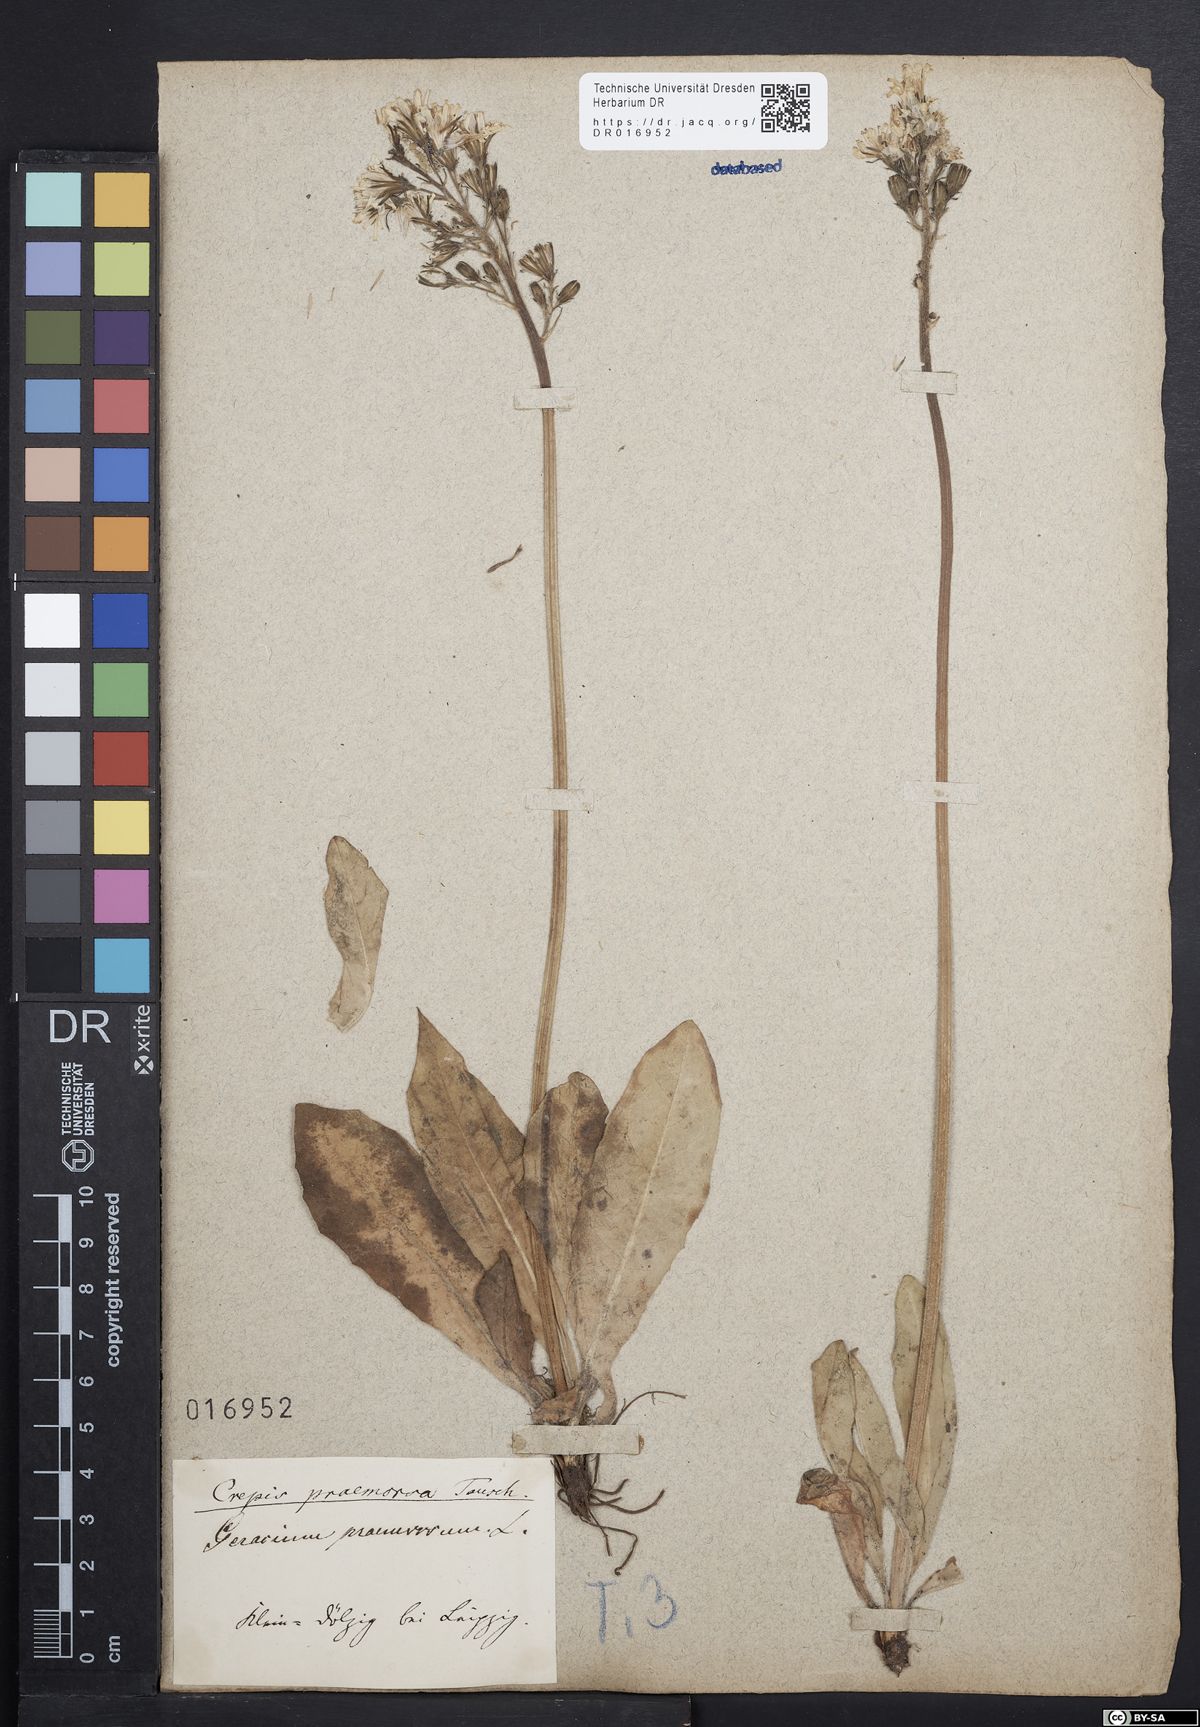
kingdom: Plantae
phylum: Tracheophyta
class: Magnoliopsida
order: Asterales
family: Asteraceae
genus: Crepis
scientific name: Crepis praemorsa
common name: Leafless hawk's-beard
